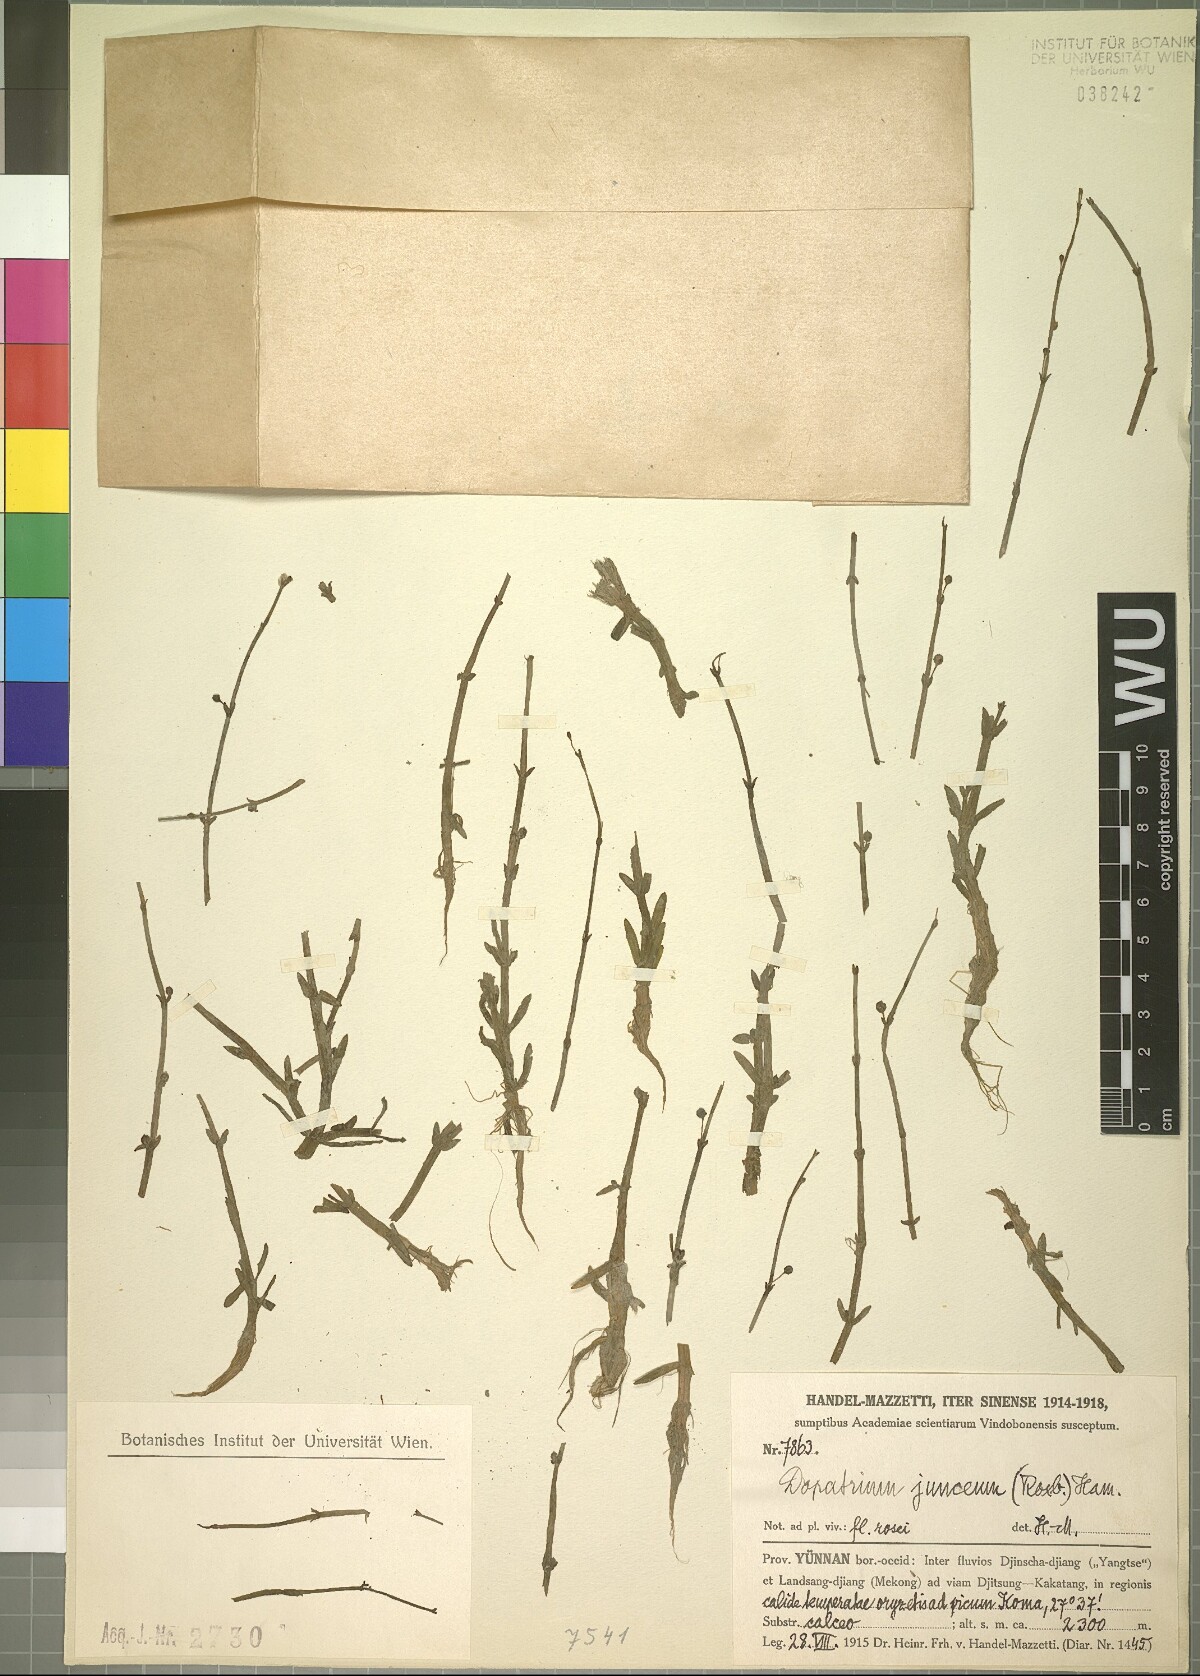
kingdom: Plantae
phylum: Tracheophyta
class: Magnoliopsida
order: Lamiales
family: Plantaginaceae
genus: Dopatrium
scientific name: Dopatrium junceum
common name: Horsefly's eye
